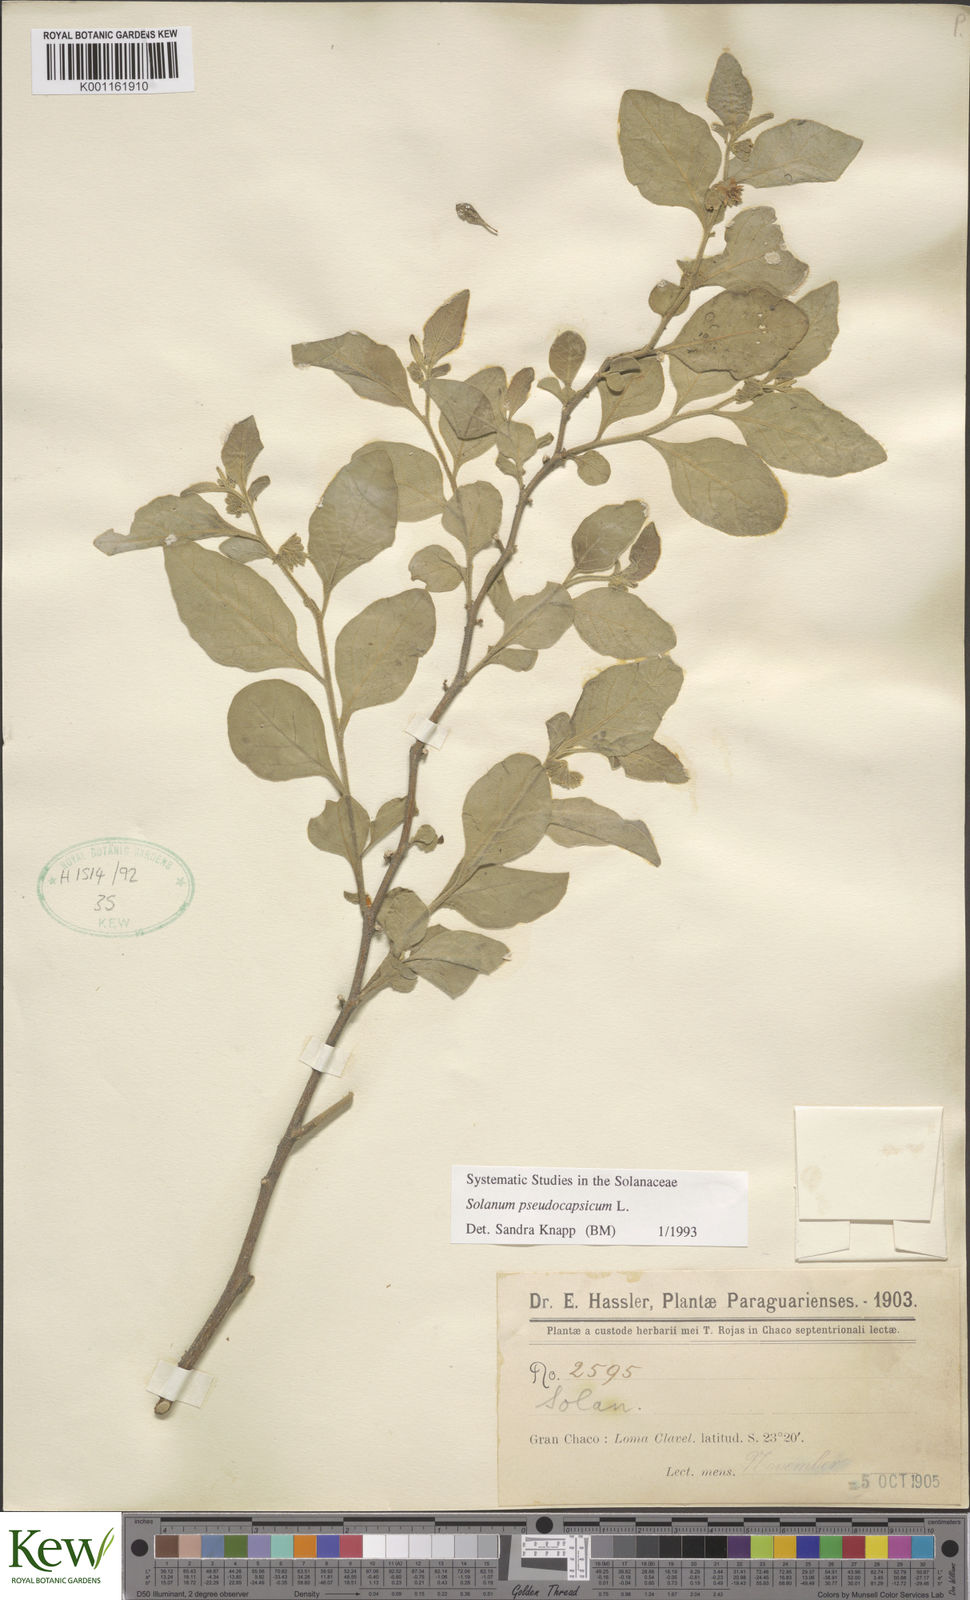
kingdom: Plantae
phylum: Tracheophyta
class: Magnoliopsida
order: Solanales
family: Solanaceae
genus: Solanum
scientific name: Solanum pseudocapsicum
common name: Jerusalem cherry
